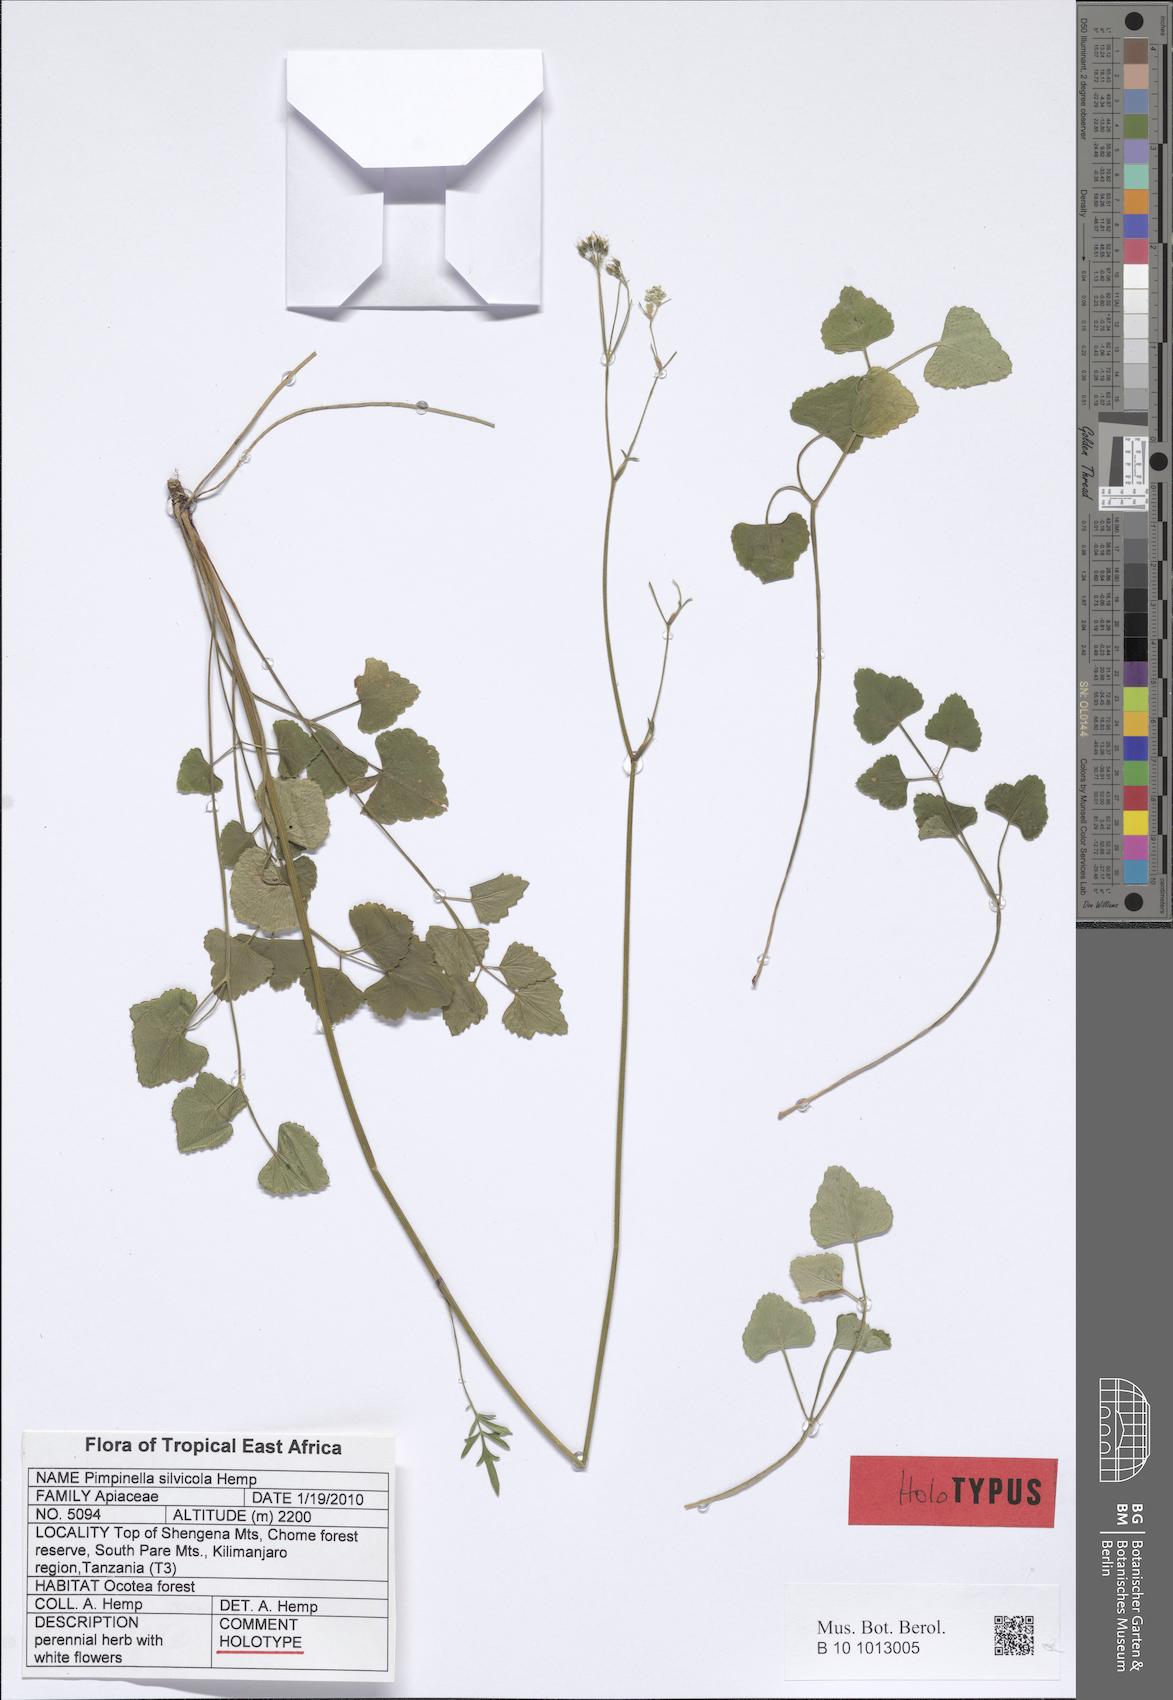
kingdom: Plantae
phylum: Tracheophyta
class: Magnoliopsida
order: Apiales
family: Apiaceae
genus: Pimpinella
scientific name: Pimpinella silvicola
